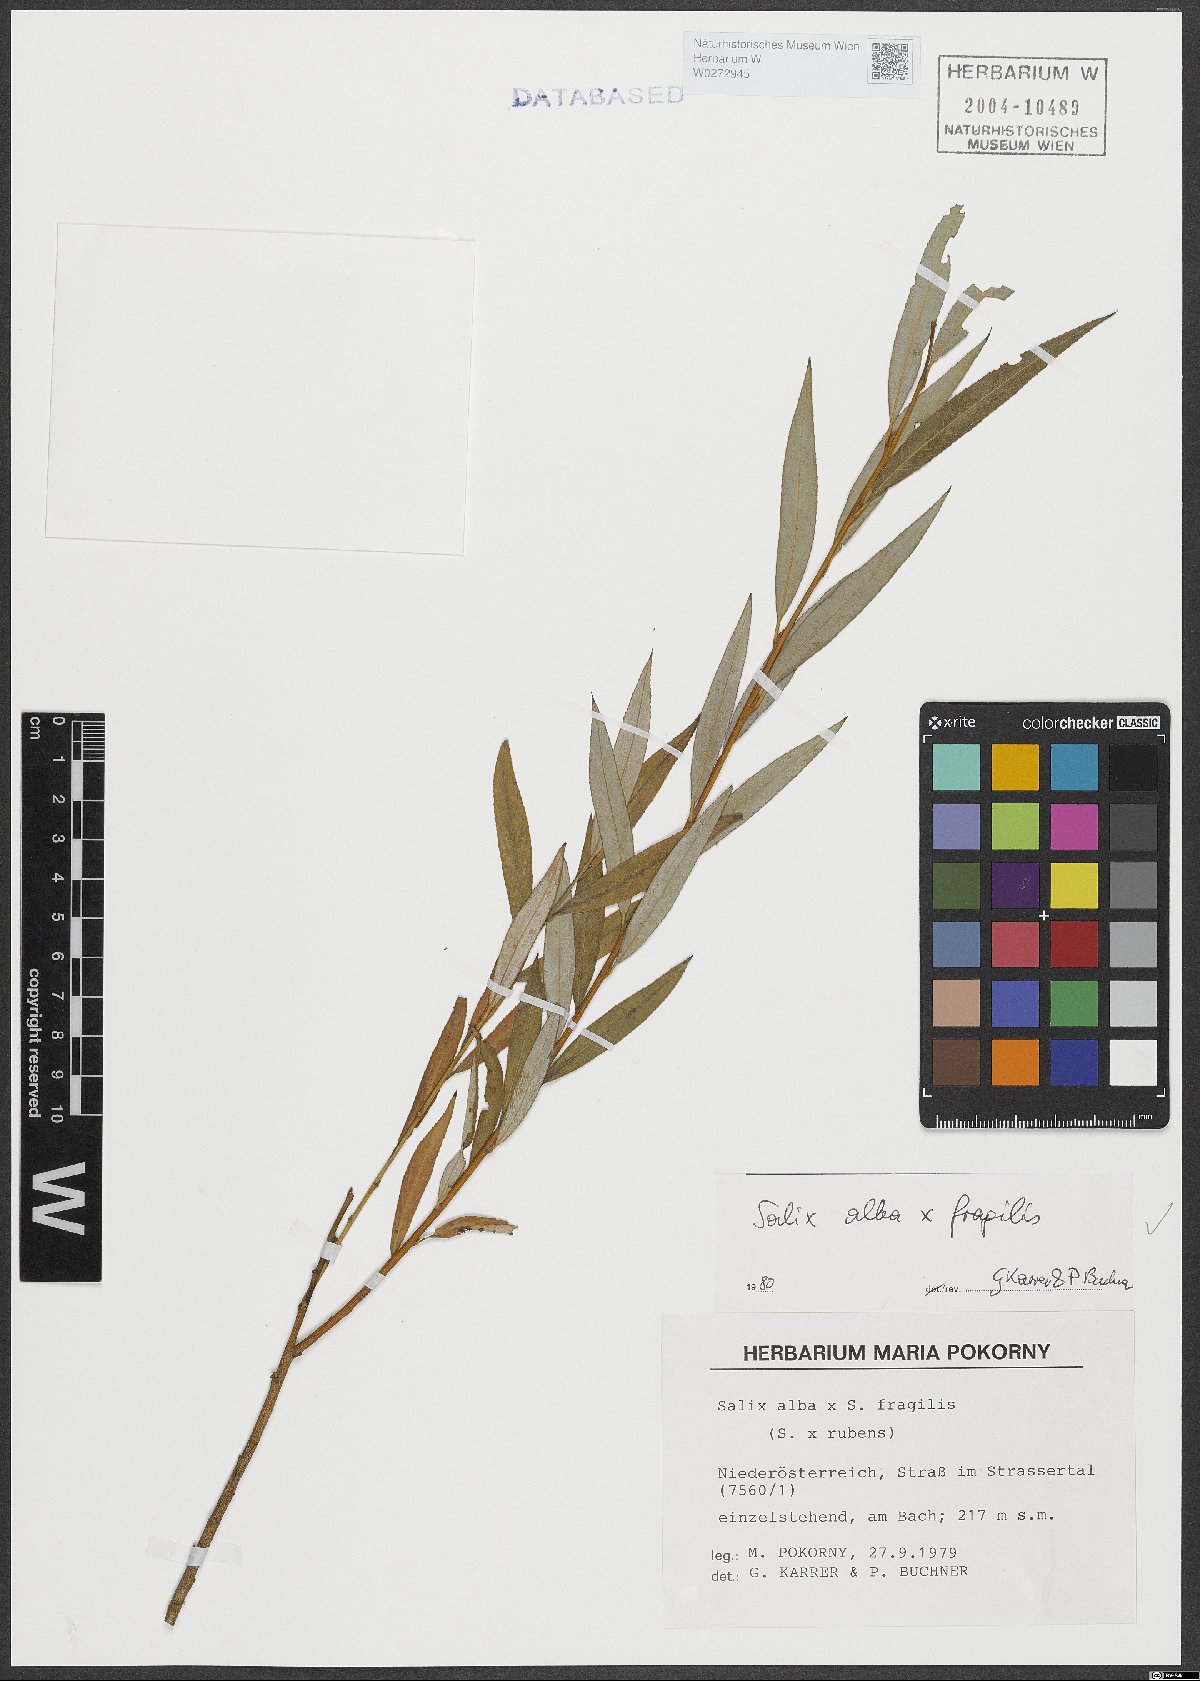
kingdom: Plantae
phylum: Tracheophyta
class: Magnoliopsida
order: Malpighiales
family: Salicaceae
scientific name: Salicaceae
